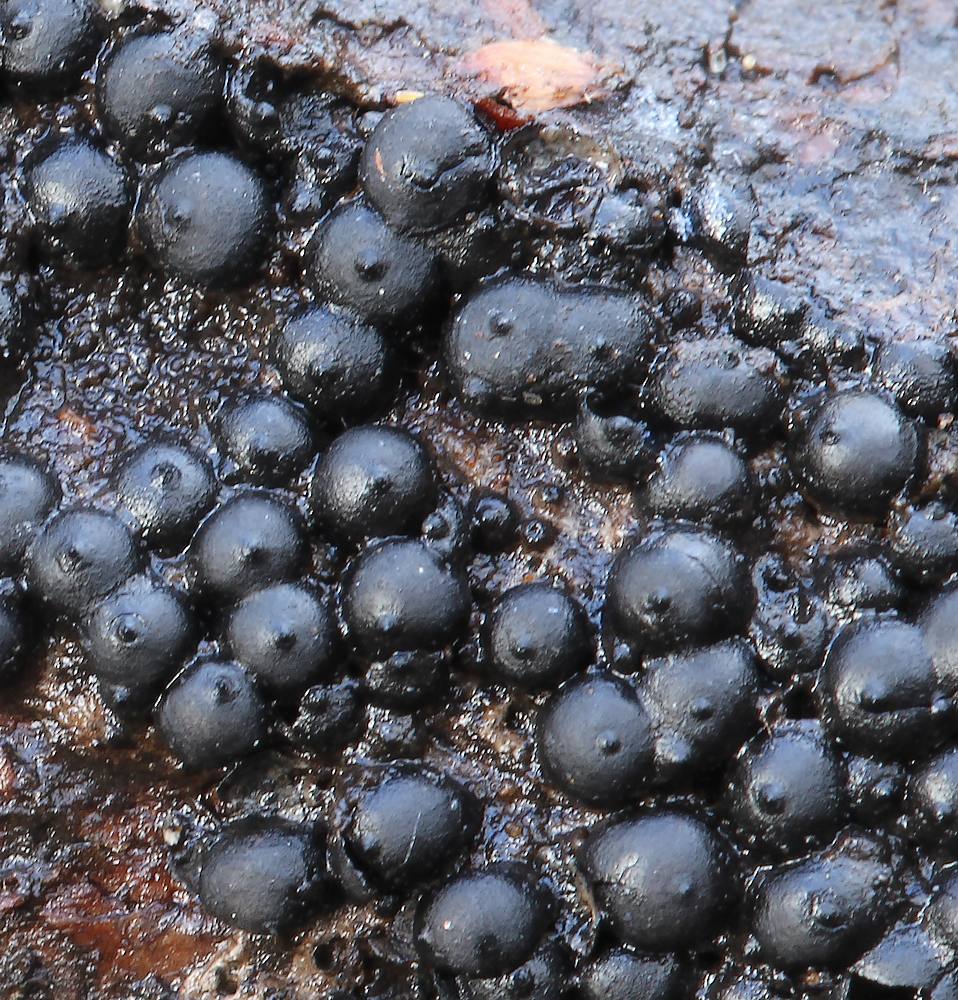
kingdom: Fungi
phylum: Ascomycota
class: Sordariomycetes
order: Xylariales
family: Xylariaceae
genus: Rosellinia
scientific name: Rosellinia
